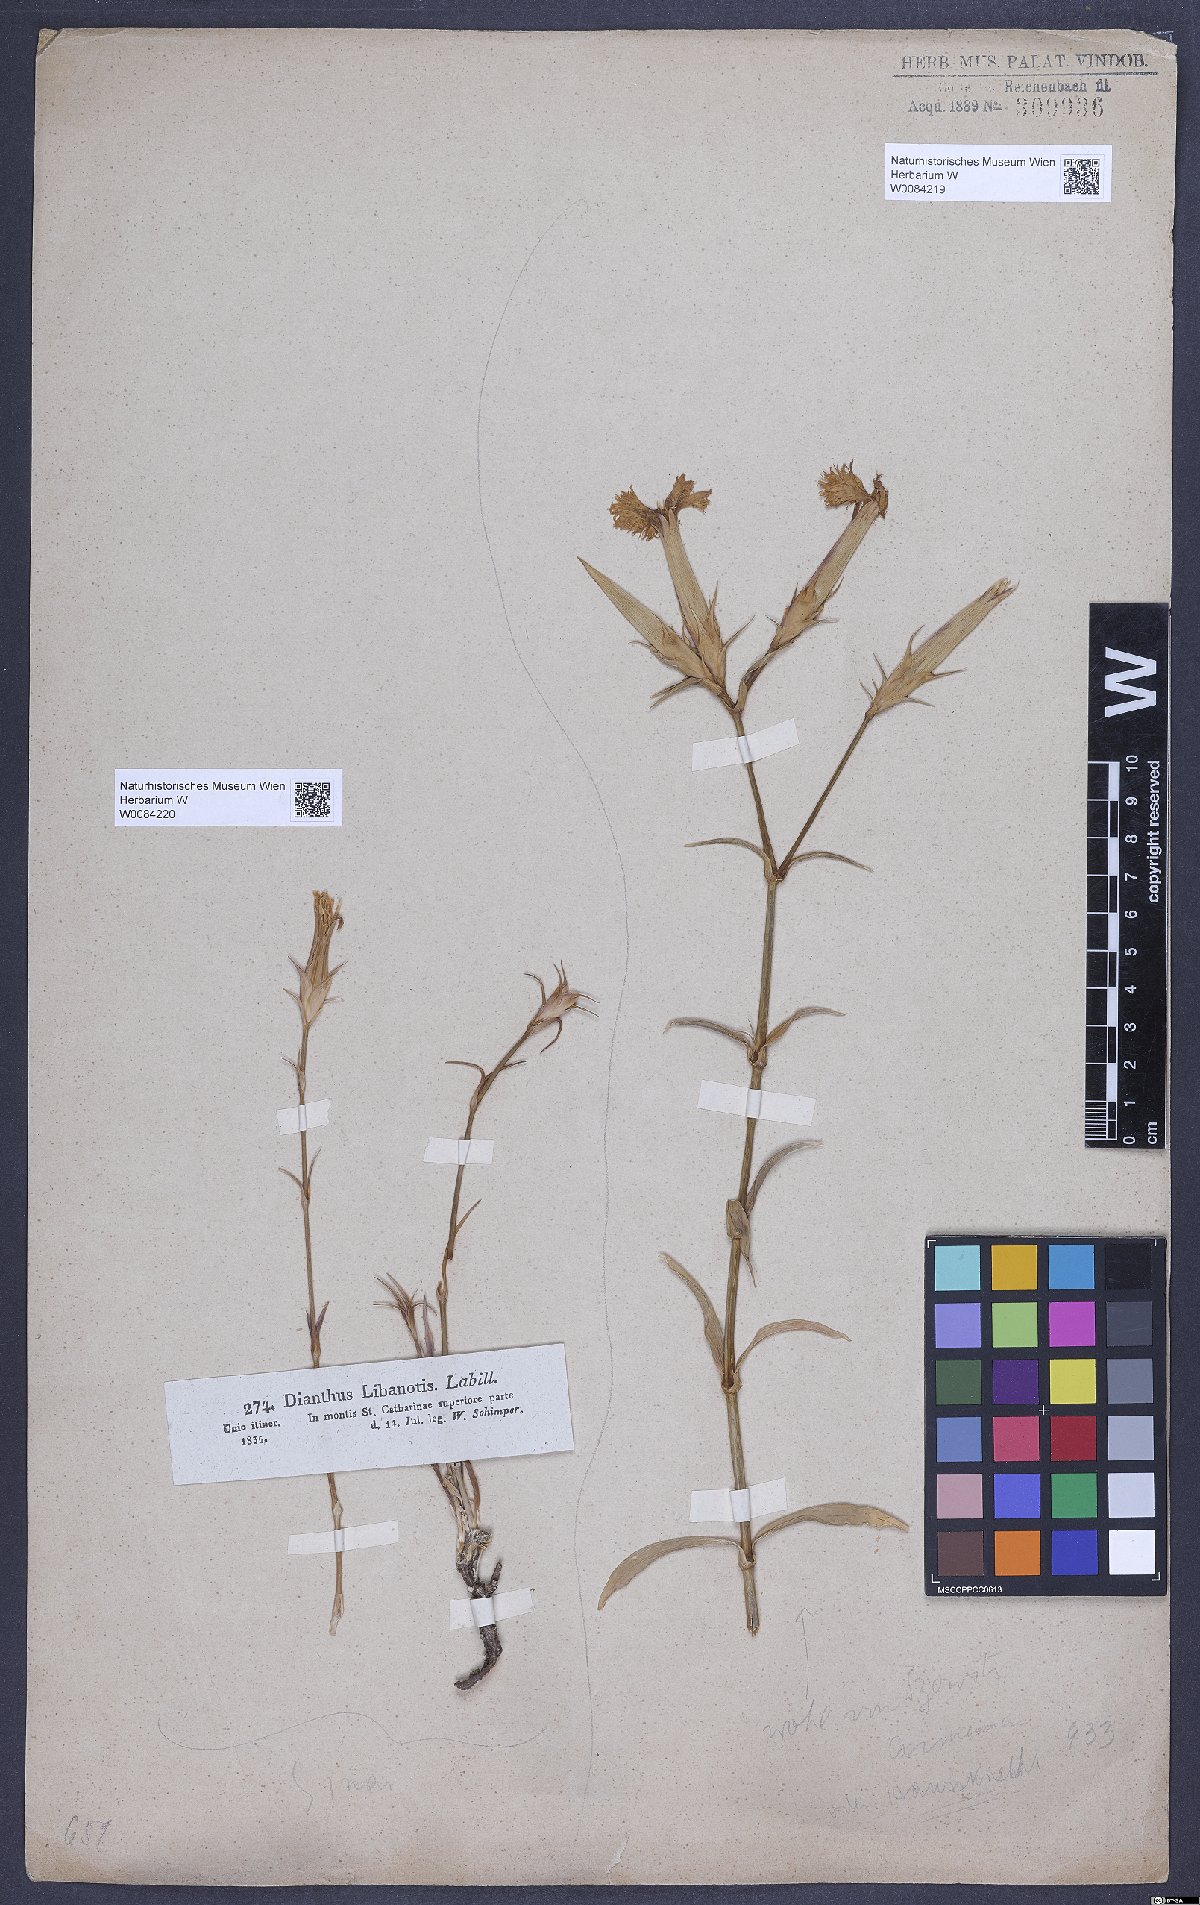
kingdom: Plantae
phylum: Tracheophyta
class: Magnoliopsida
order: Caryophyllales
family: Caryophyllaceae
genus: Dianthus
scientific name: Dianthus libanotis
